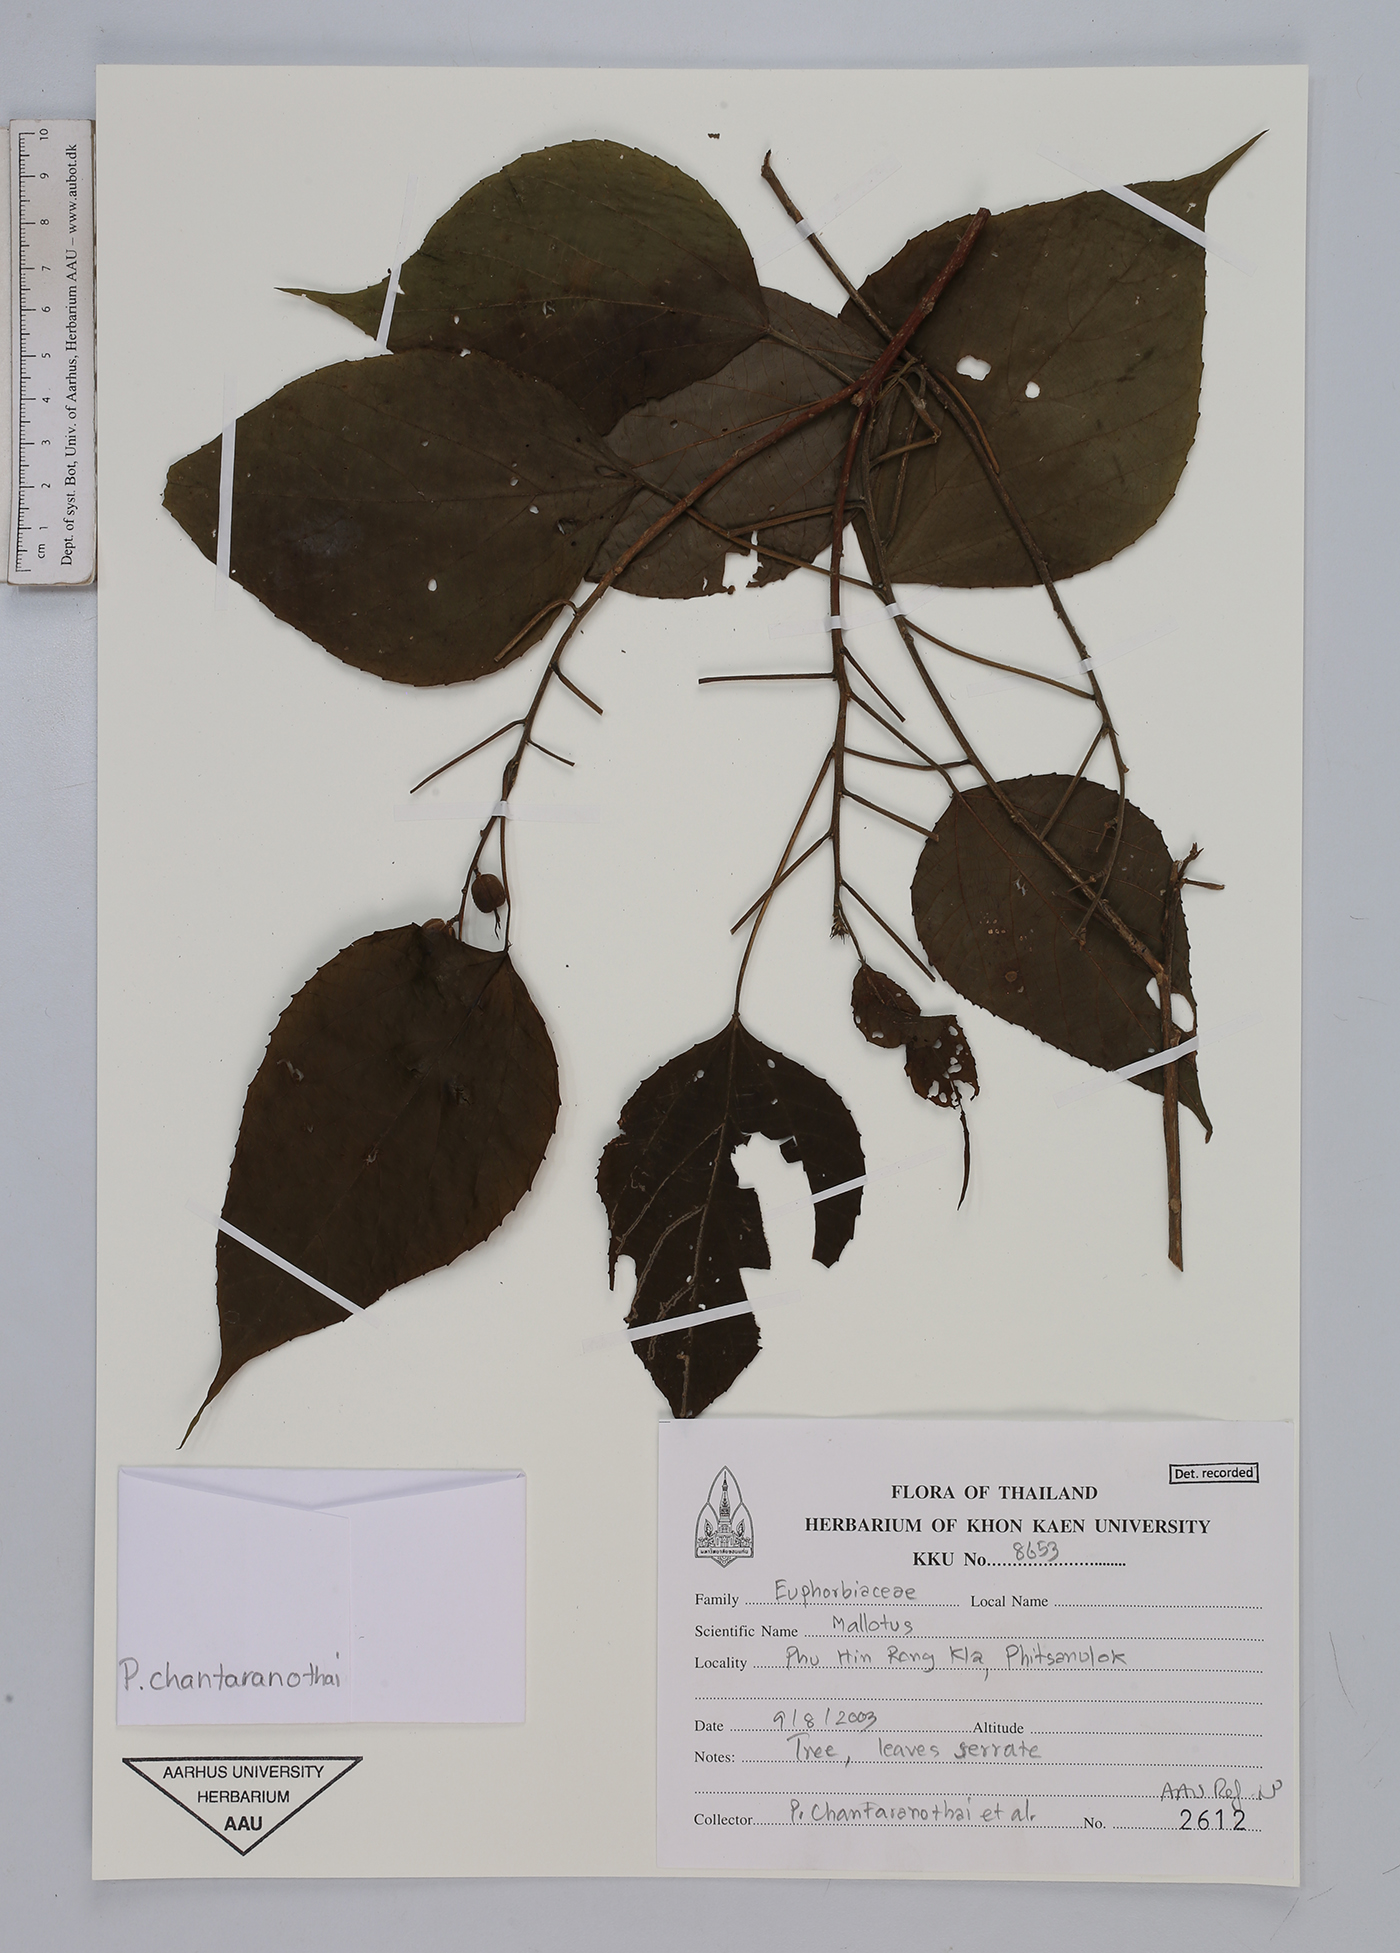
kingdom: Plantae
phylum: Tracheophyta
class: Magnoliopsida
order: Malpighiales
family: Euphorbiaceae
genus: Mallotus
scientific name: Mallotus
